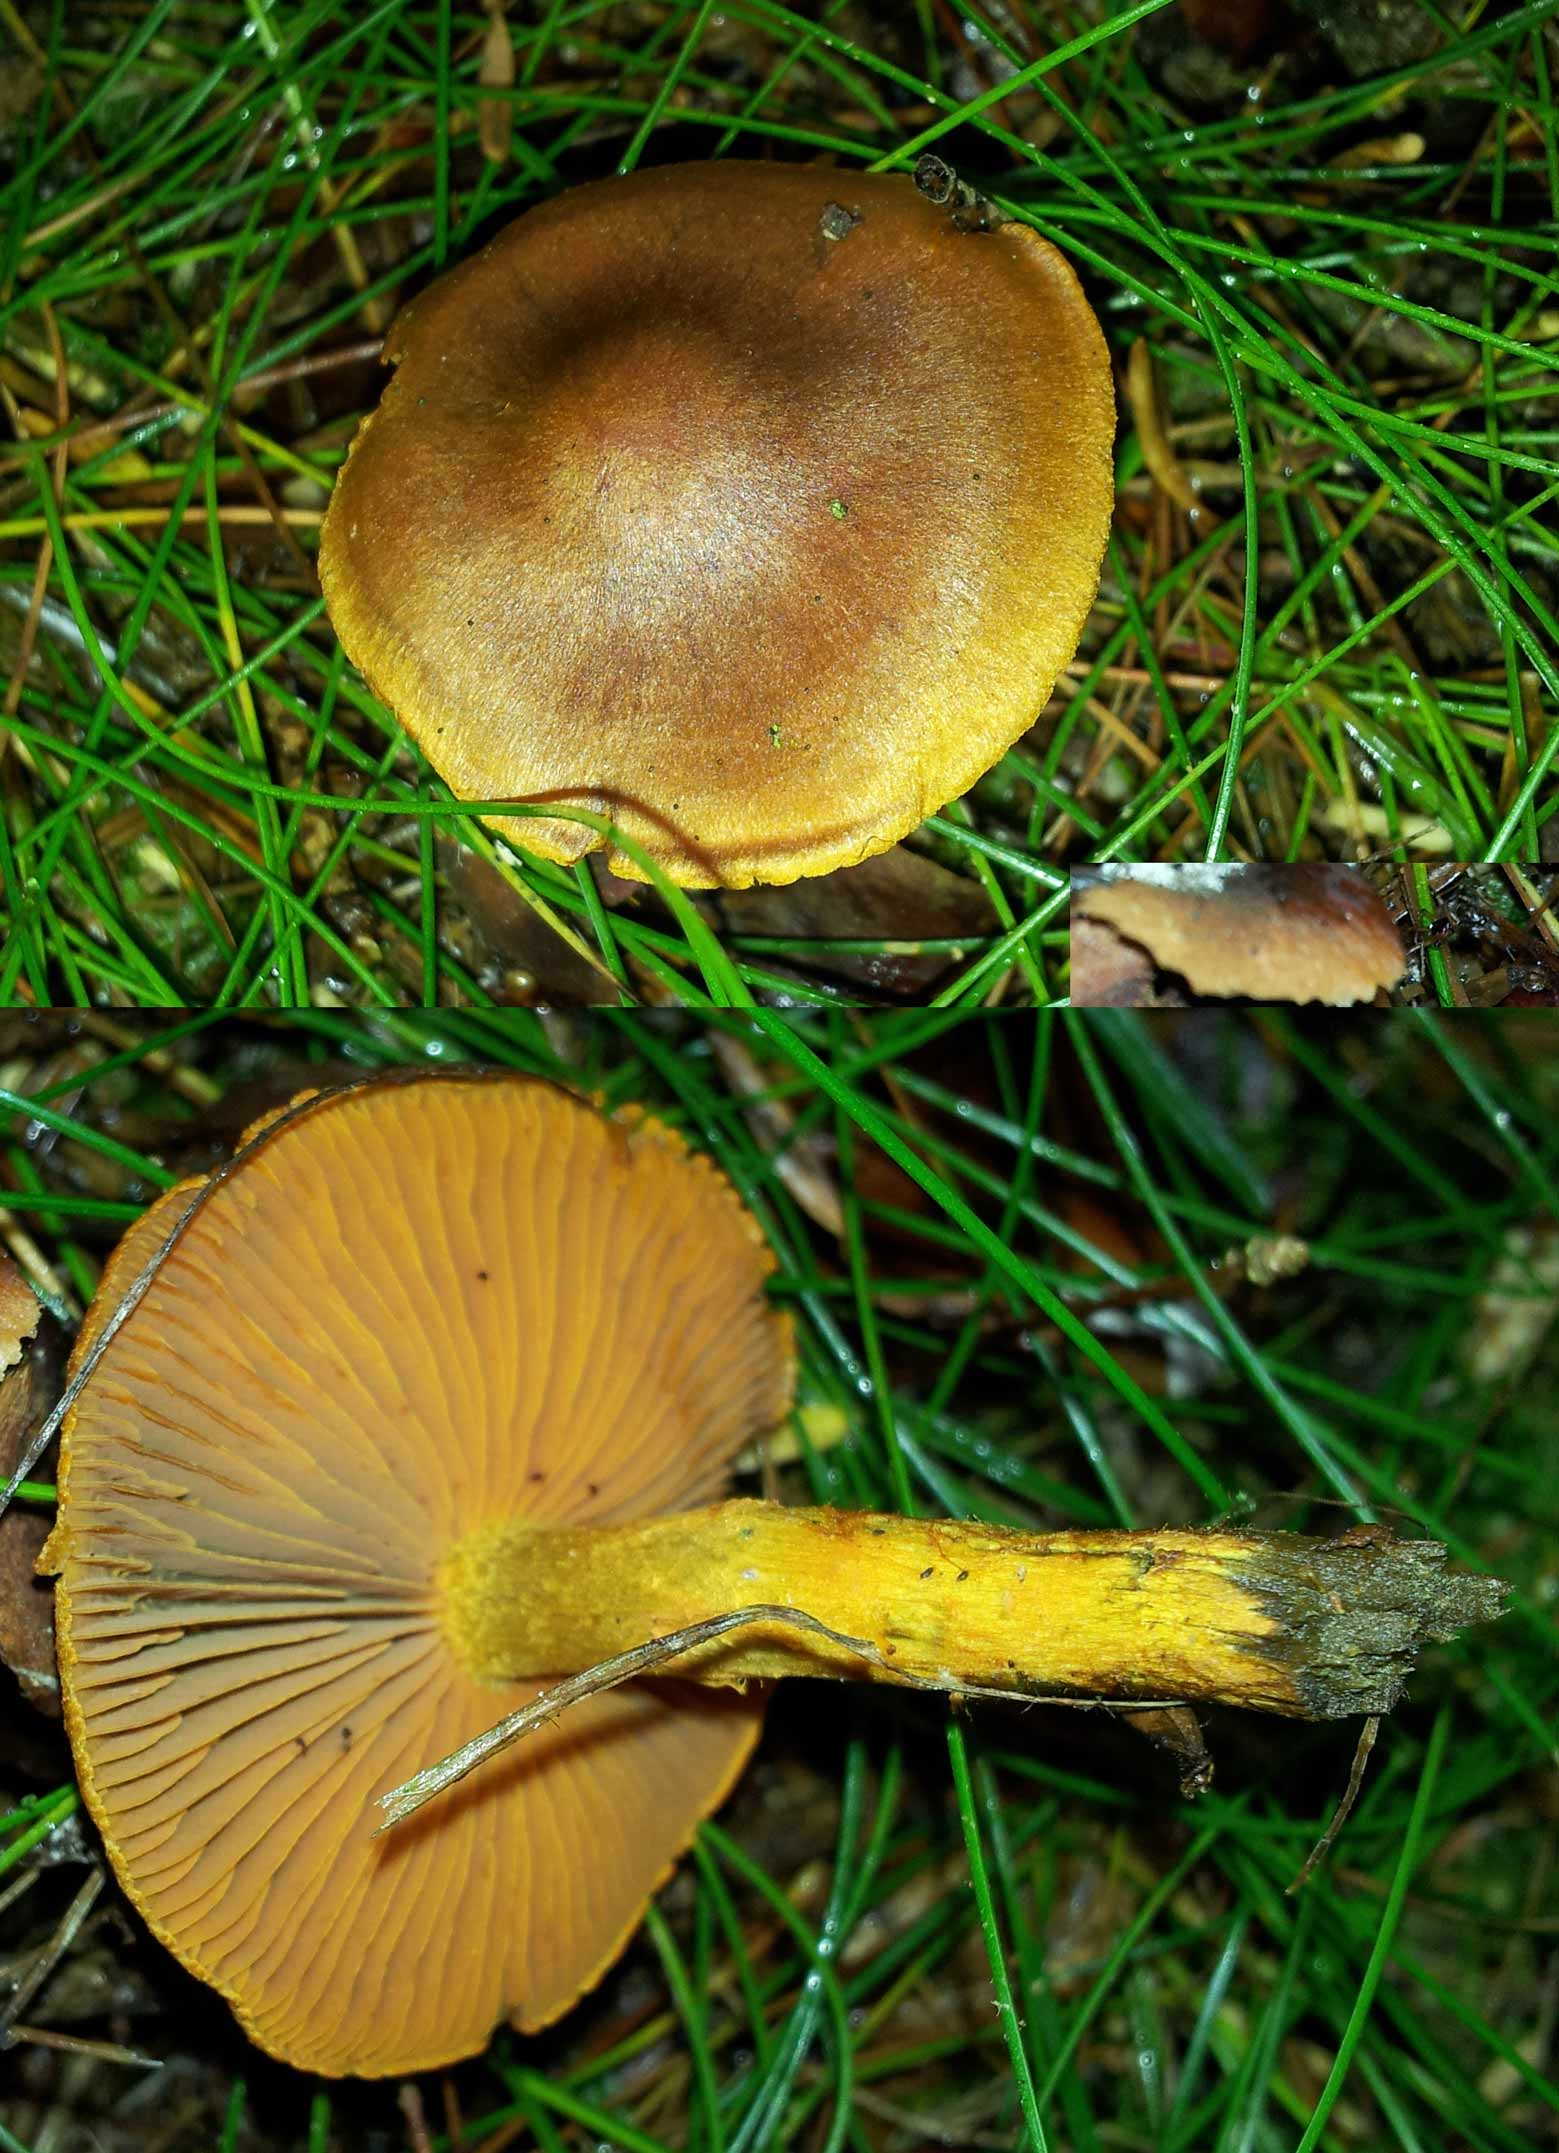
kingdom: Fungi
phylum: Basidiomycota
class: Agaricomycetes
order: Agaricales
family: Cortinariaceae
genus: Cortinarius
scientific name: Cortinarius malicorius
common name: grønkødet slørhat
